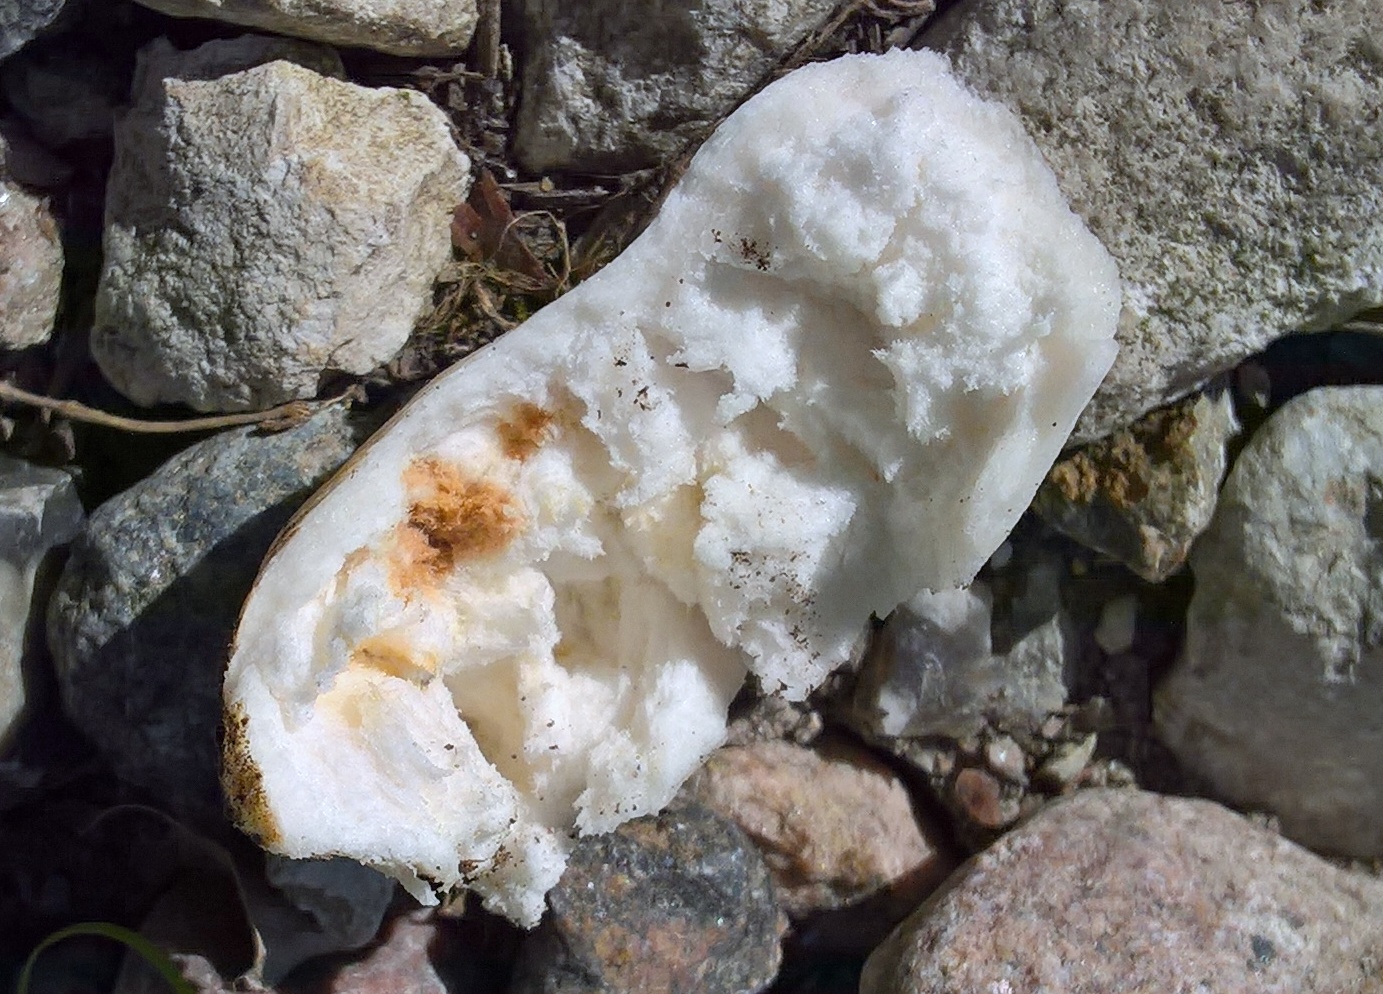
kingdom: Fungi
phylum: Basidiomycota
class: Agaricomycetes
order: Russulales
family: Russulaceae
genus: Russula
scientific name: Russula
